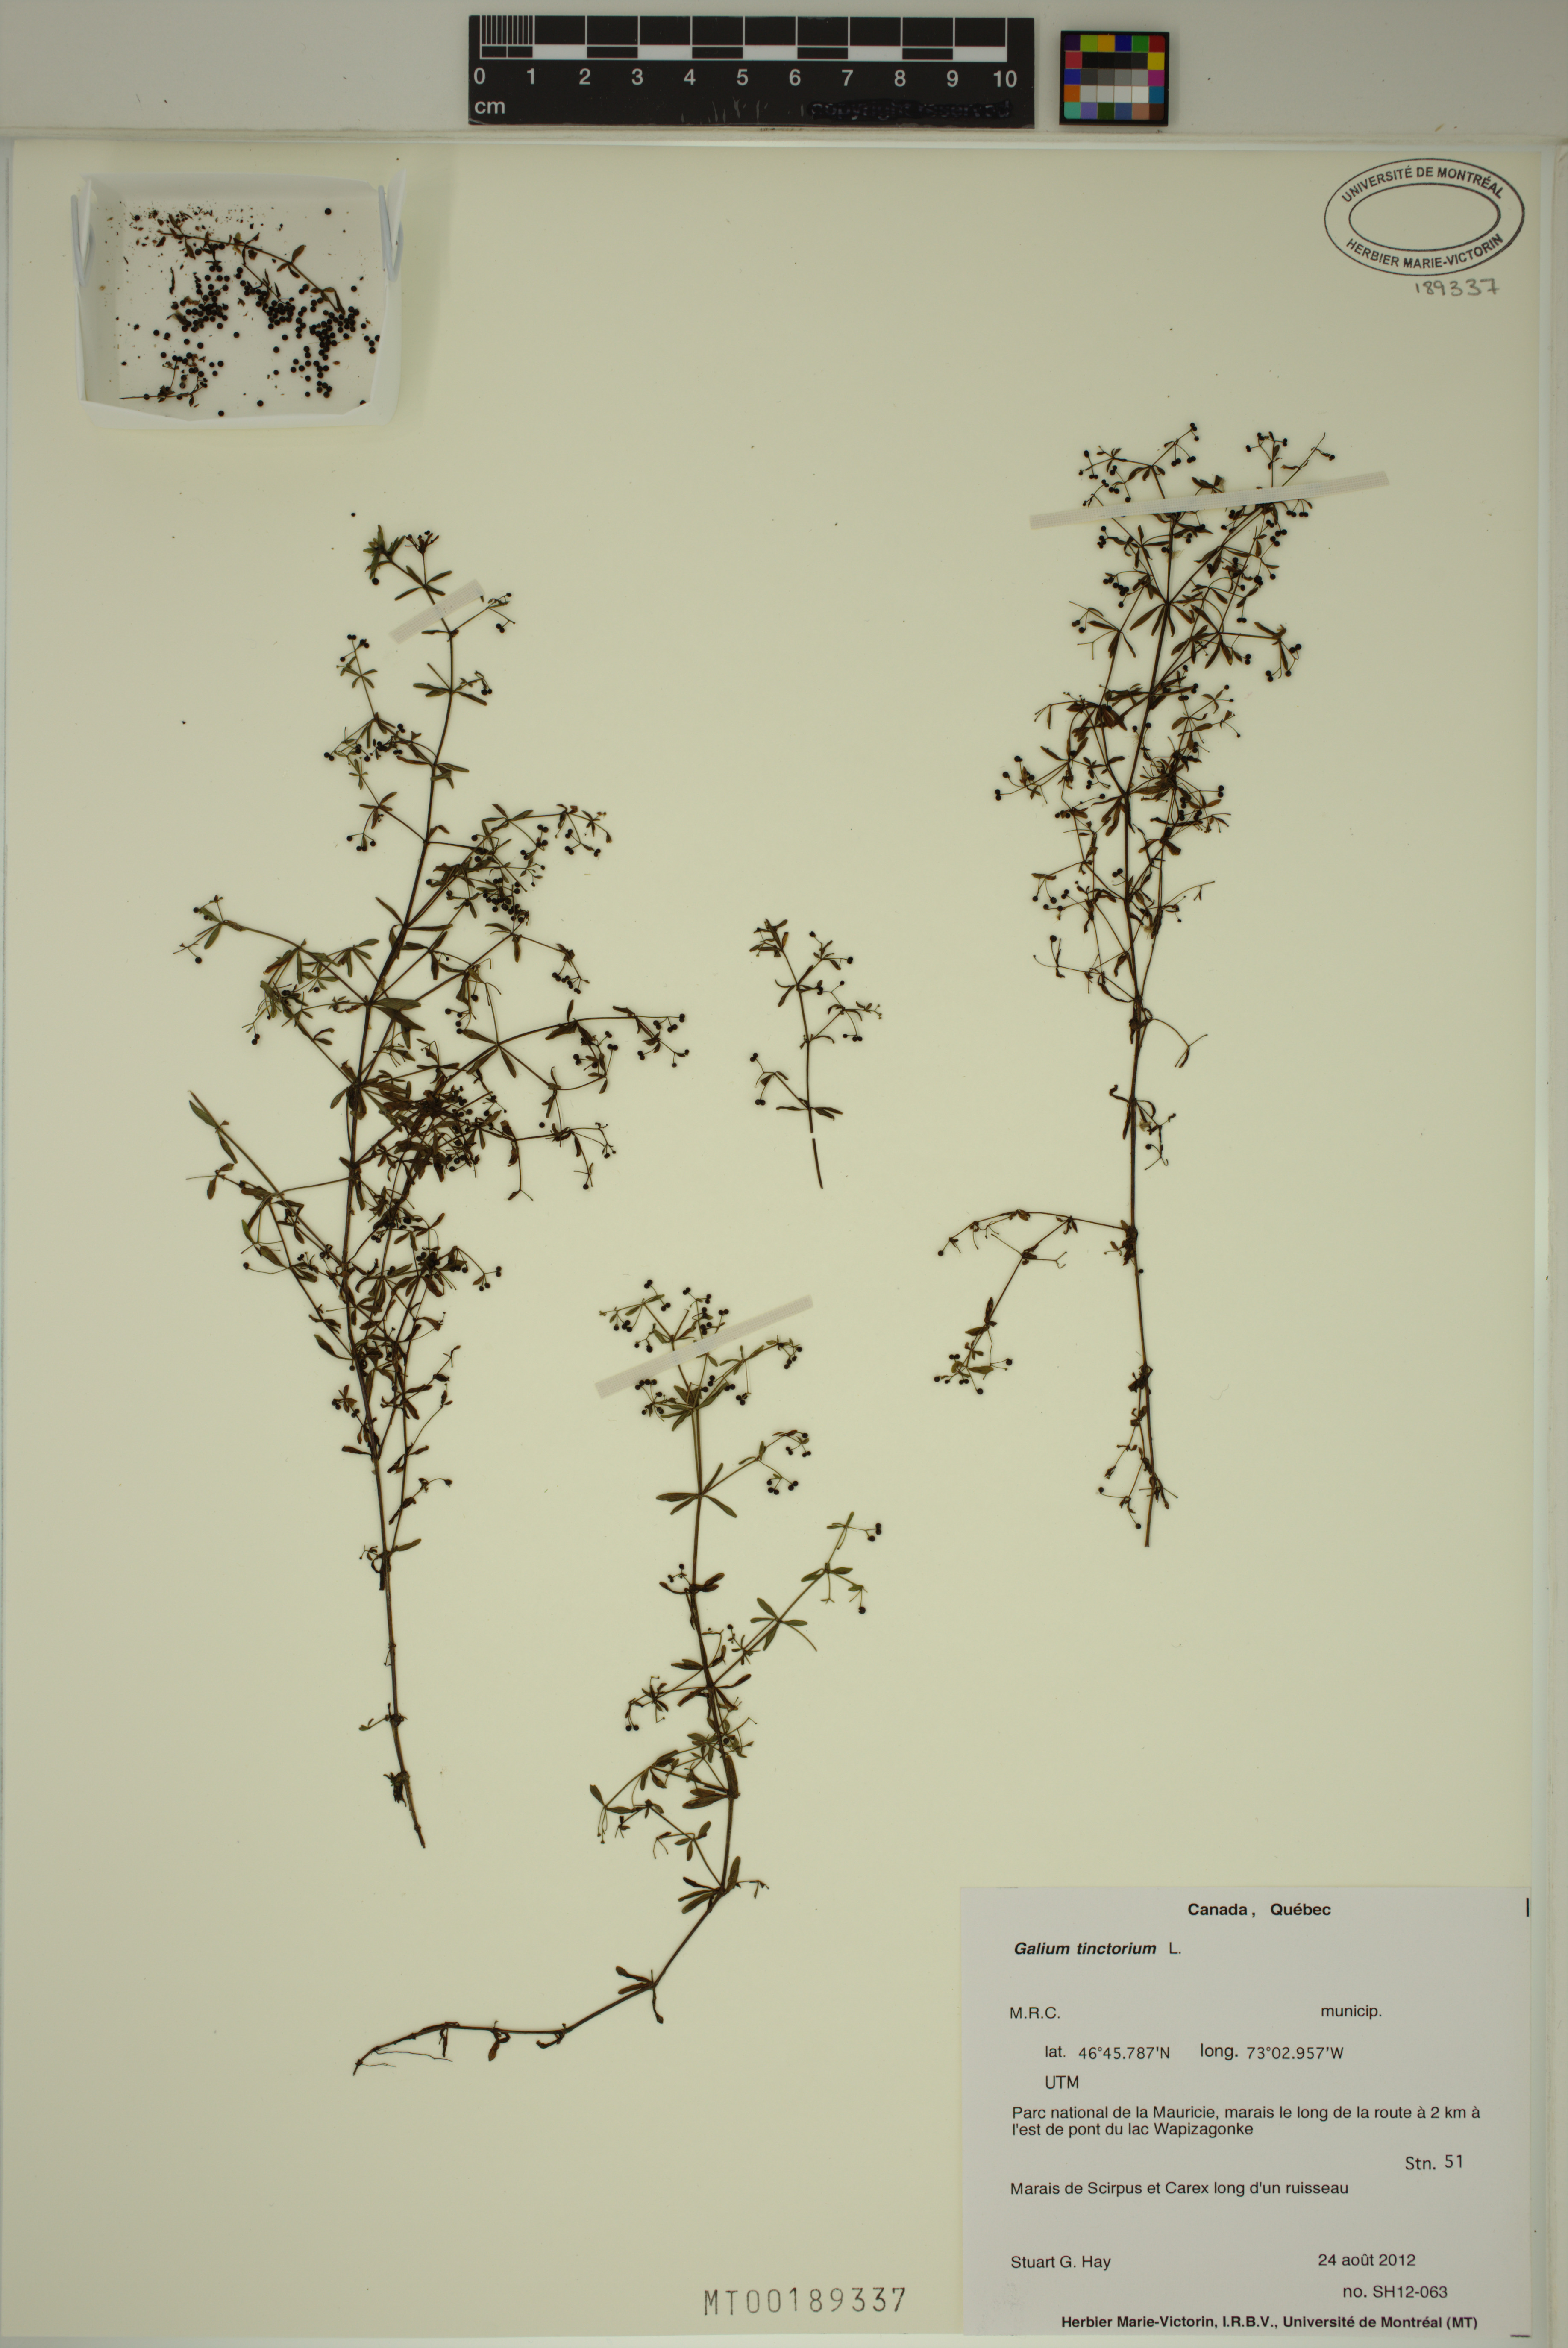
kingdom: Plantae
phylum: Tracheophyta
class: Magnoliopsida
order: Gentianales
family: Rubiaceae
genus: Galium
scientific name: Galium tinctorium
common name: Bedstraw
